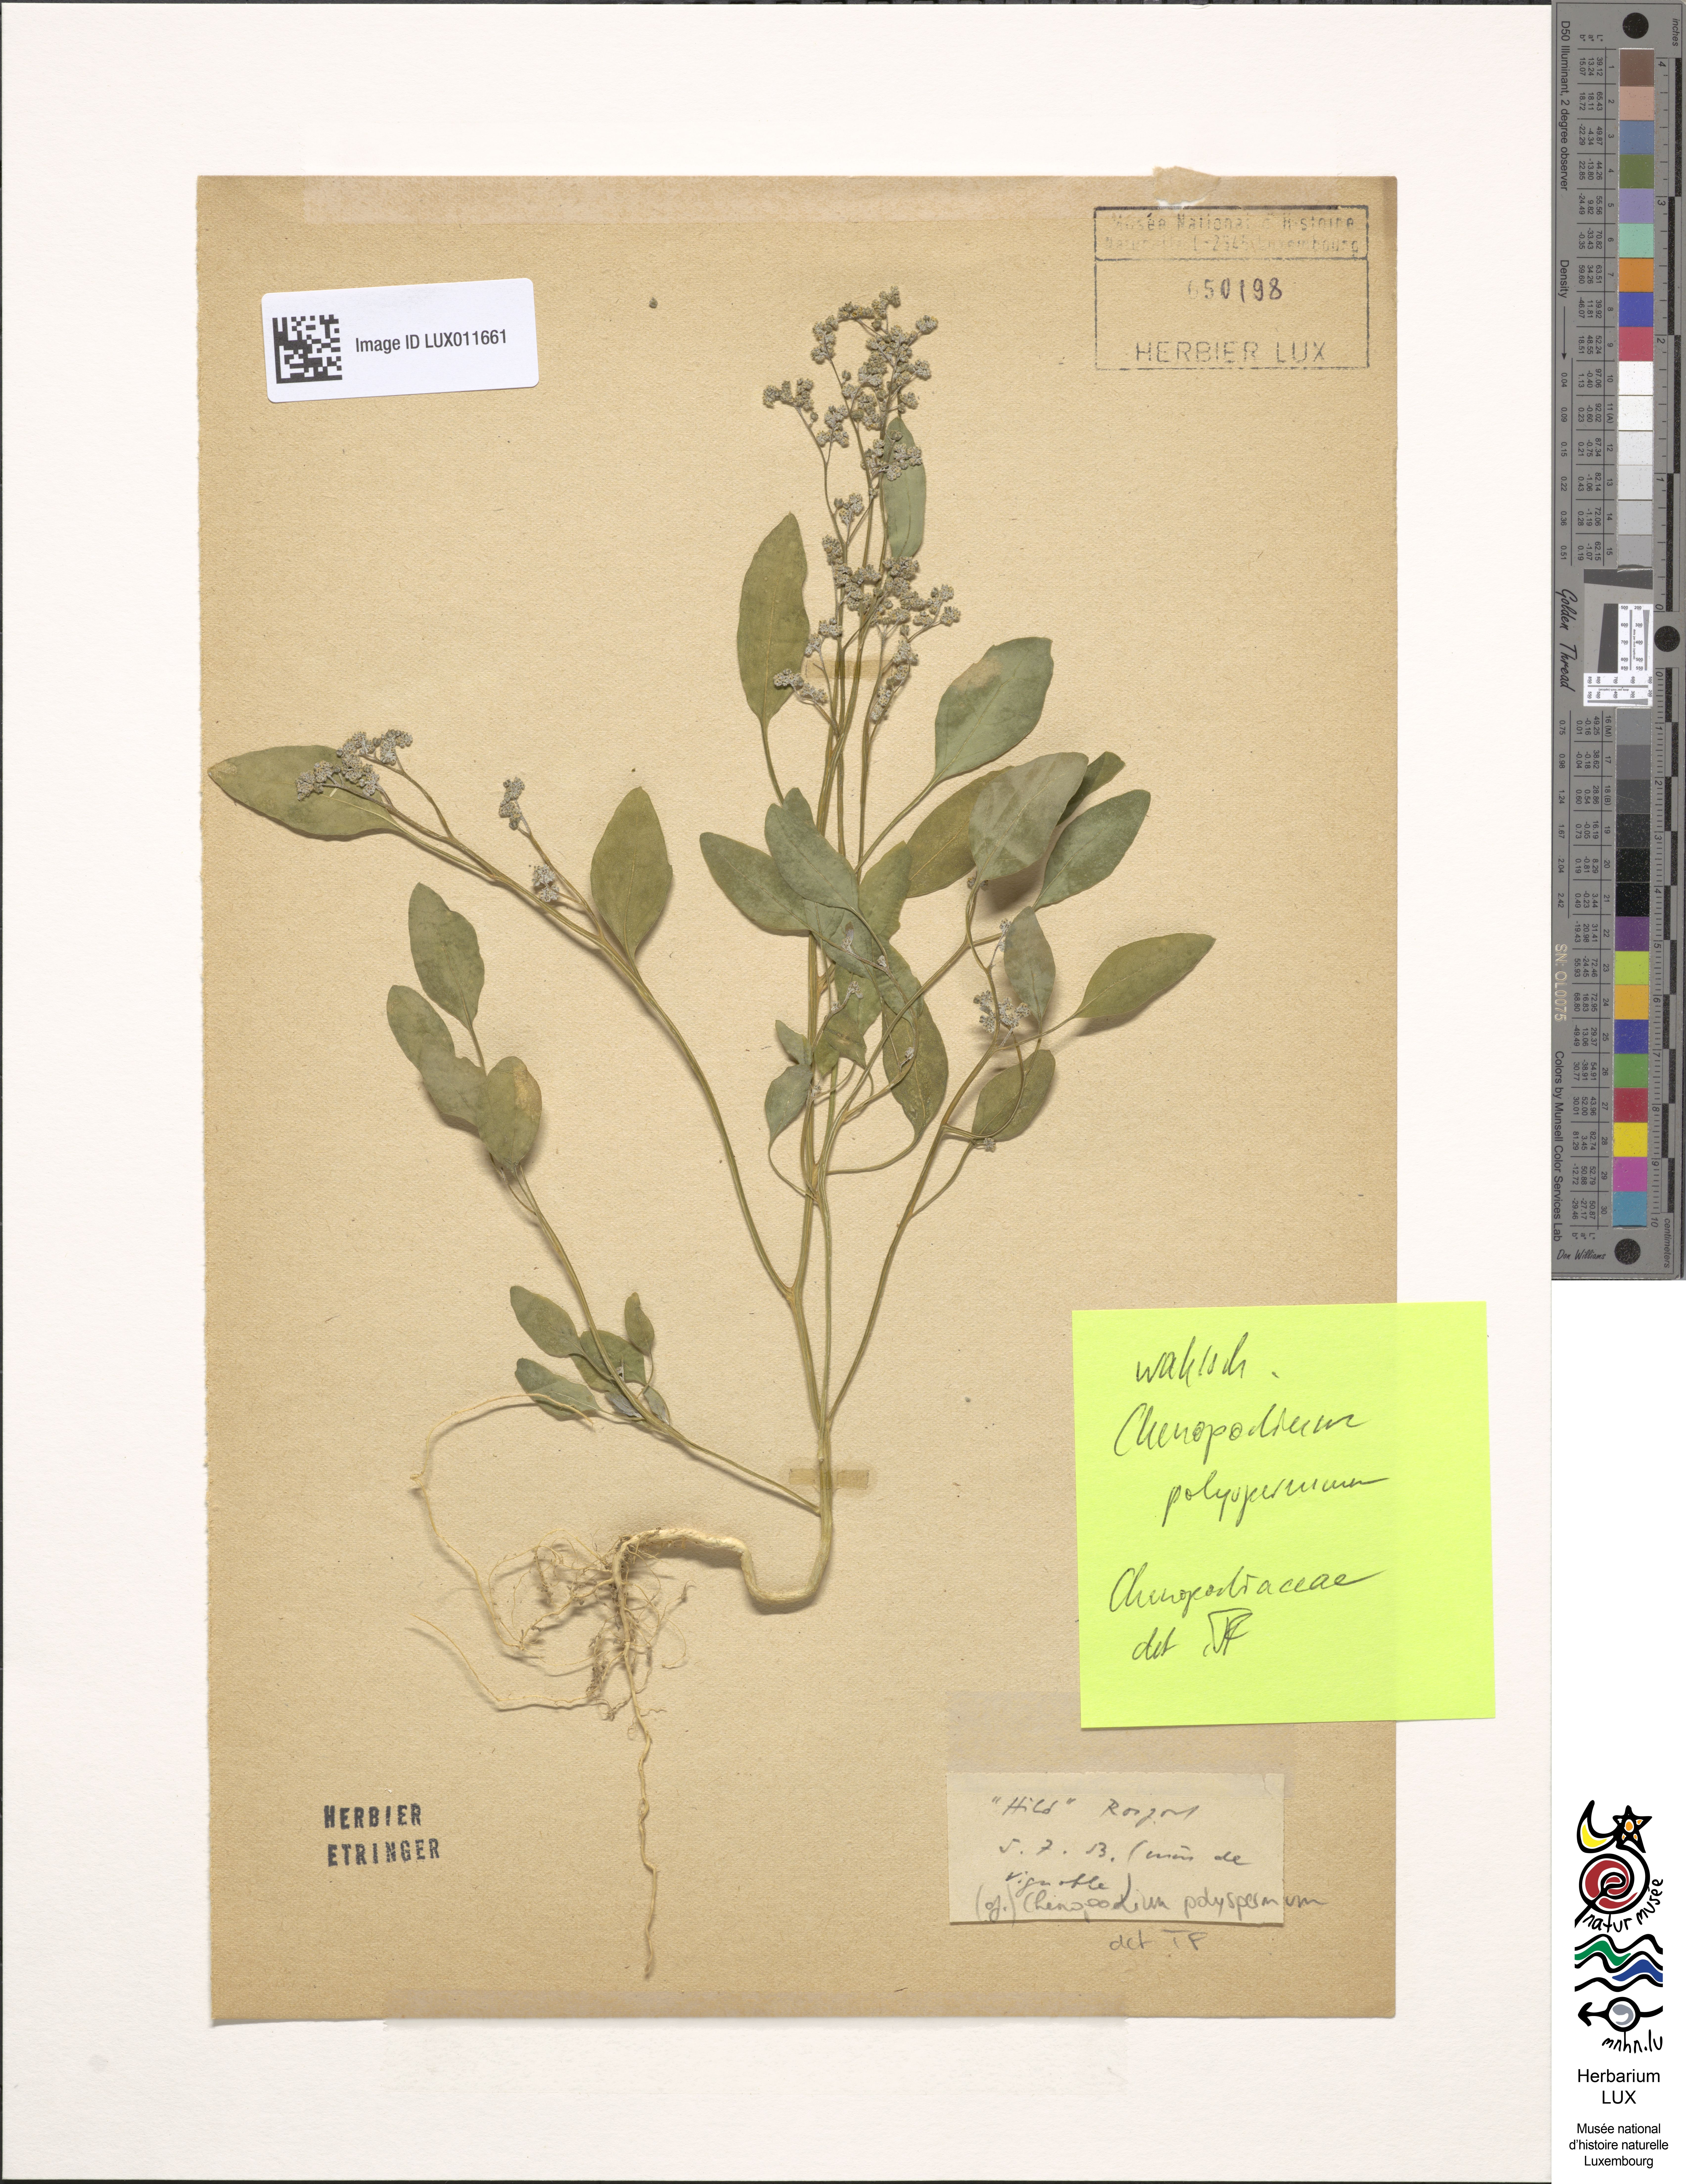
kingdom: Plantae
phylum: Tracheophyta
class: Magnoliopsida
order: Caryophyllales
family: Amaranthaceae
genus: Lipandra
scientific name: Lipandra polysperma
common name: Many-seed goosefoot
